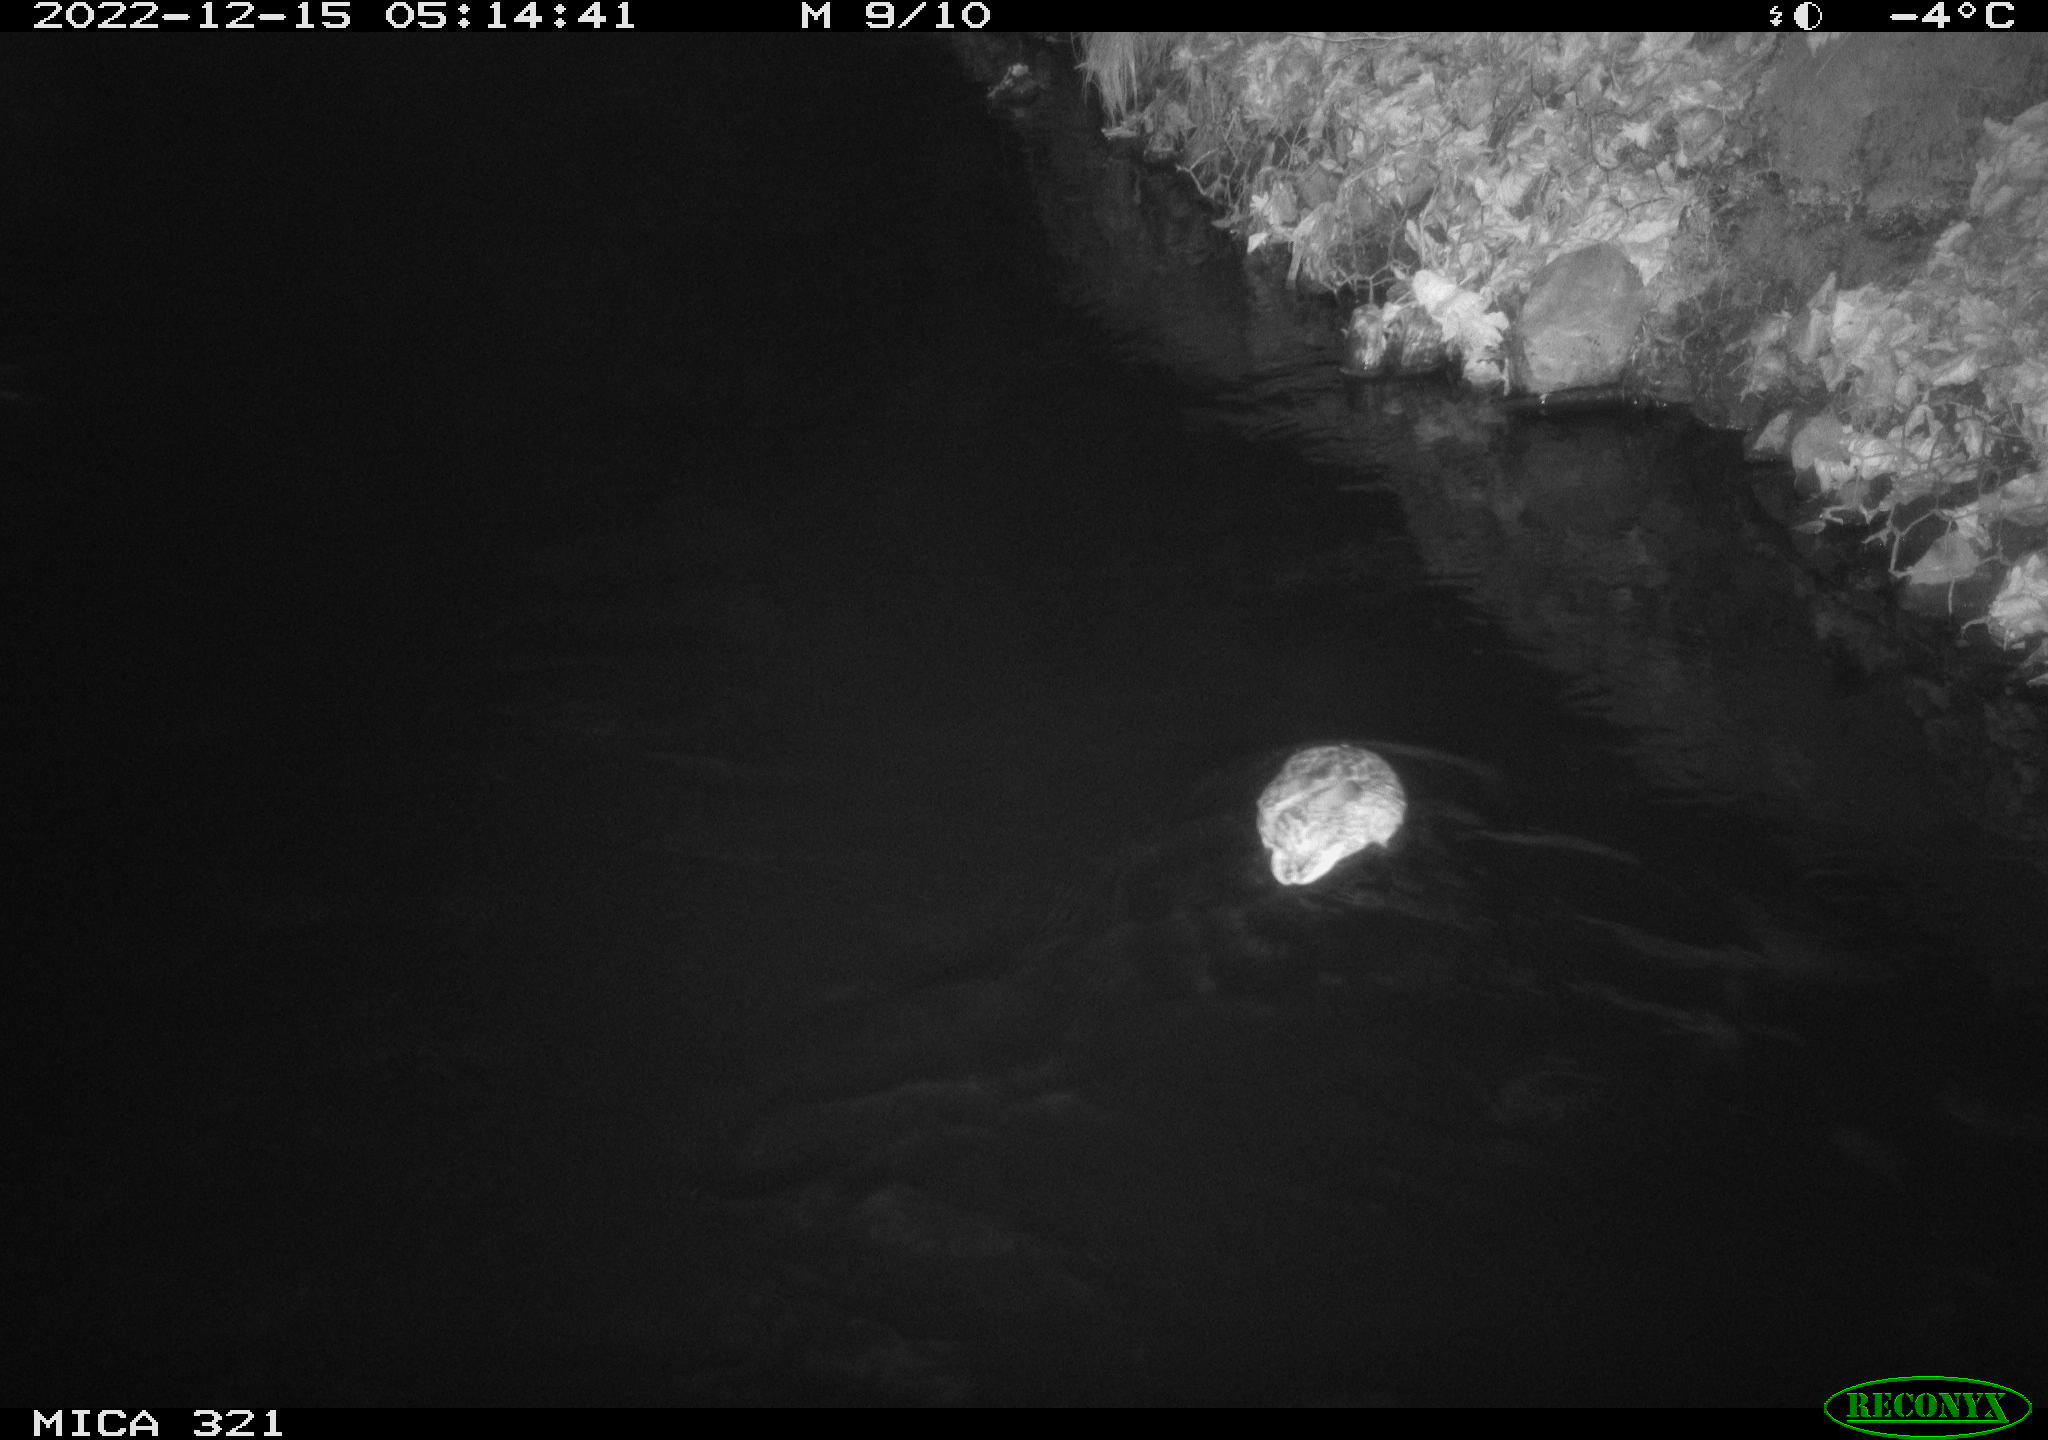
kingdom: Animalia
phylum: Chordata
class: Aves
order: Anseriformes
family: Anatidae
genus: Anas
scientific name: Anas
